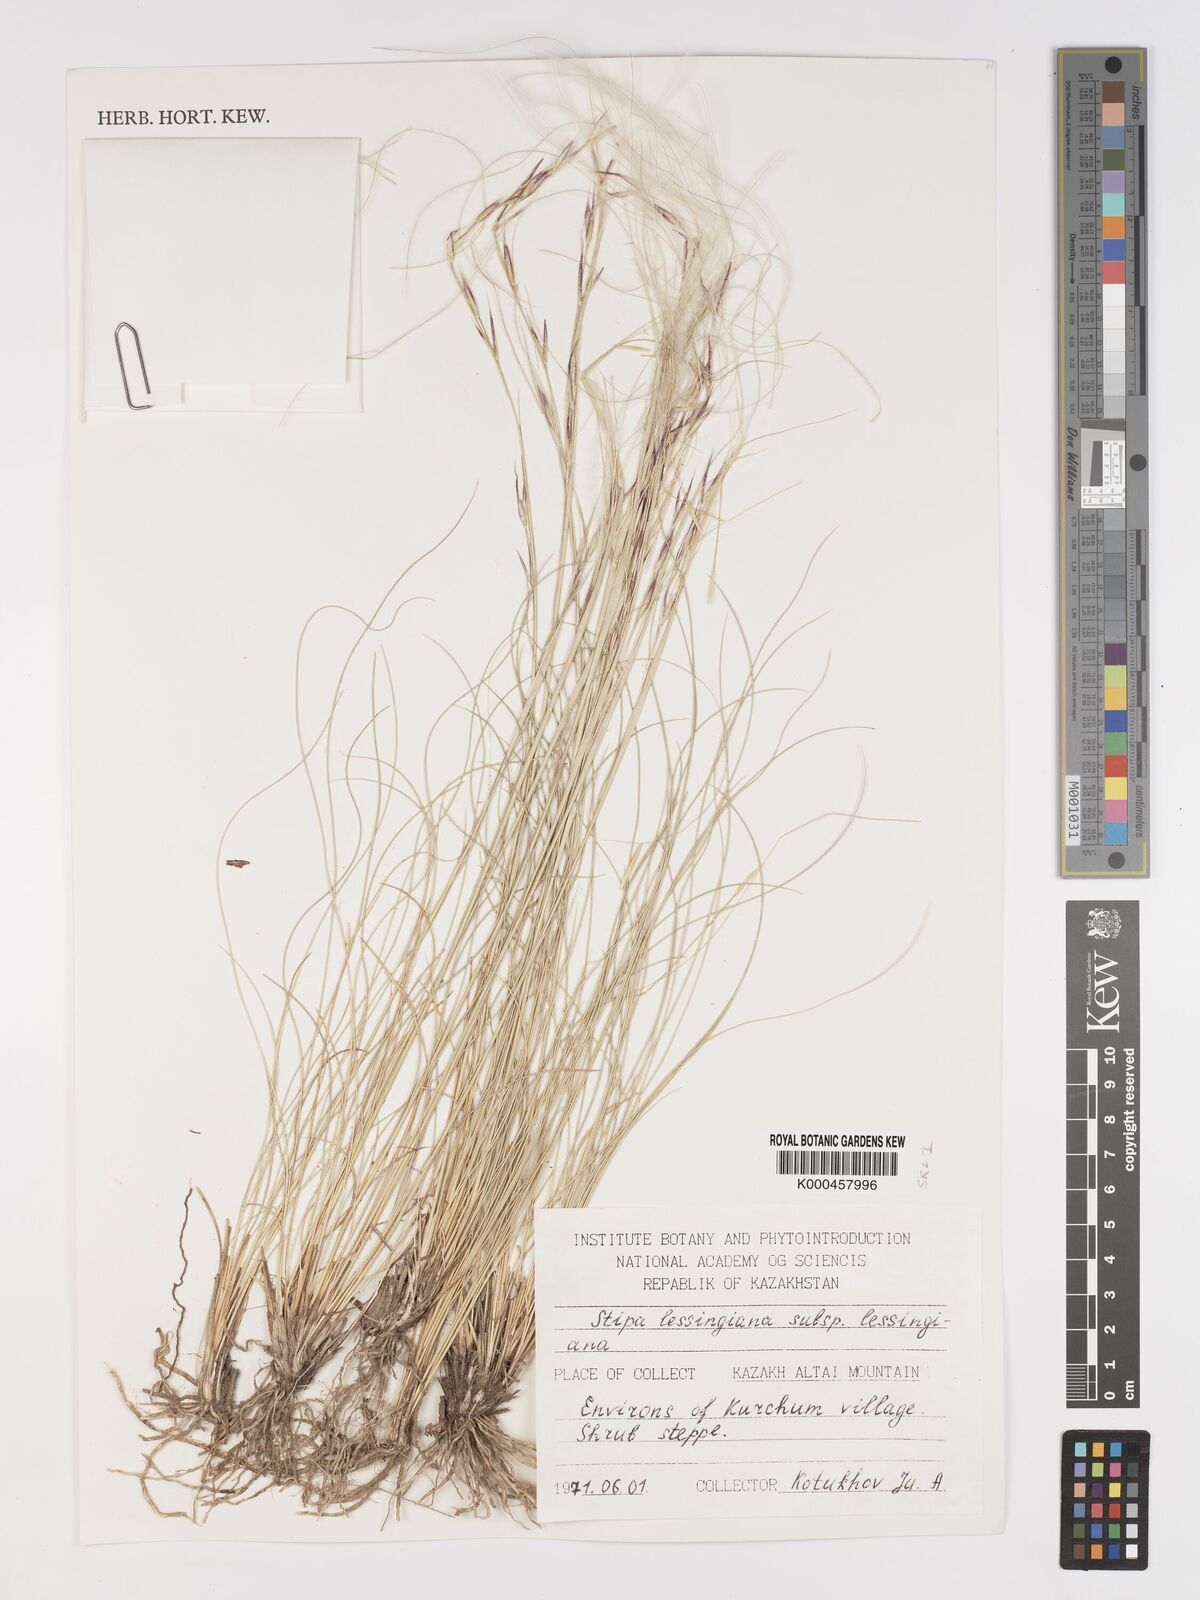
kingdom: Plantae
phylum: Tracheophyta
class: Liliopsida
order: Poales
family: Poaceae
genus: Stipa
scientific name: Stipa lessingiana
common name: Needle grass
